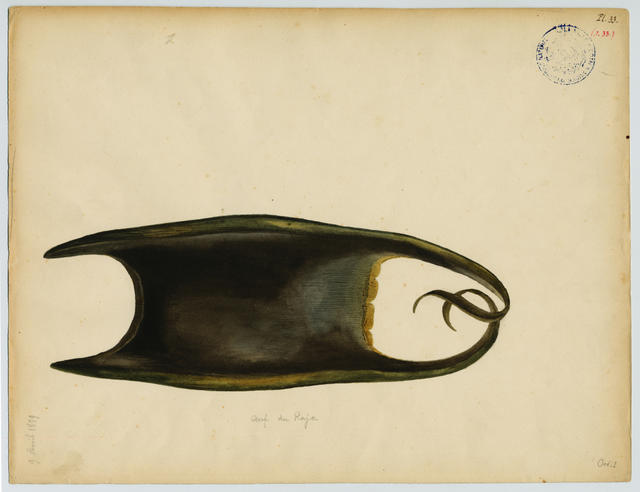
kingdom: Animalia
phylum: Chordata
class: Elasmobranchii
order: Rajiformes
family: Rajidae
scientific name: Rajidae
